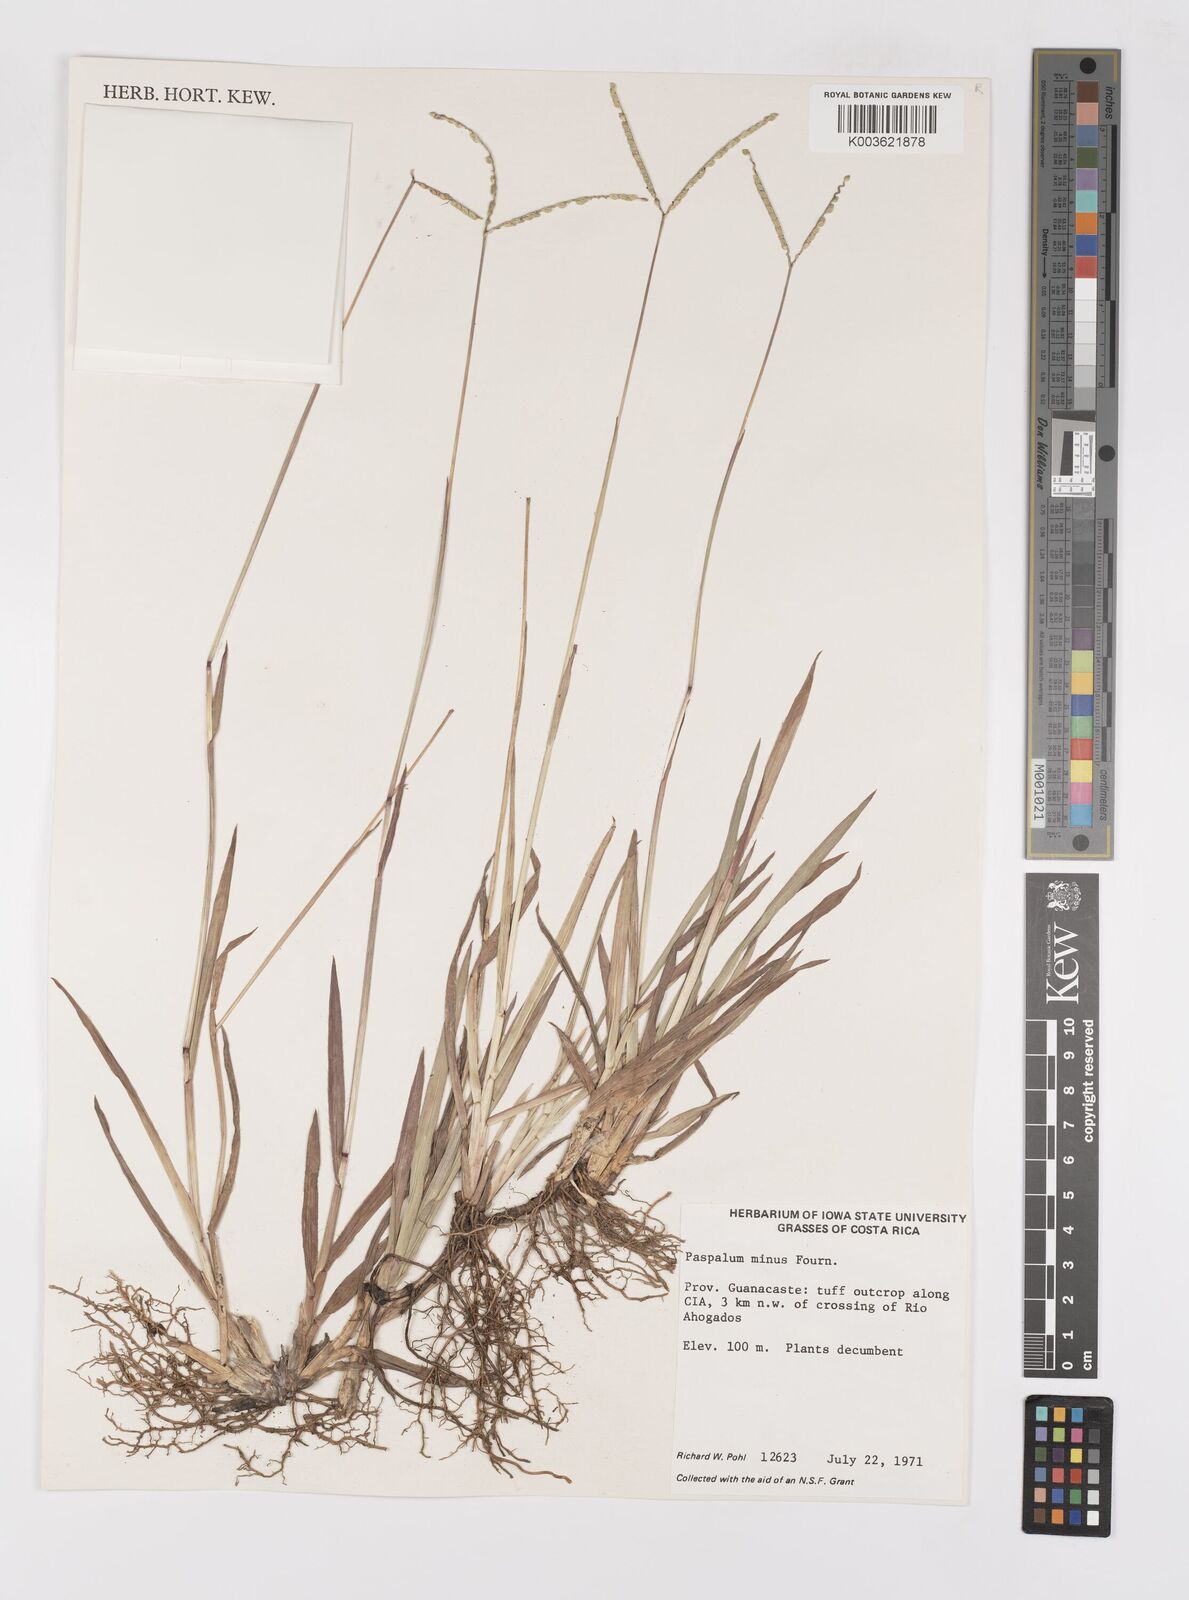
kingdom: Plantae
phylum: Tracheophyta
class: Liliopsida
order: Poales
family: Poaceae
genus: Paspalum
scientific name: Paspalum minus
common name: Matted paspalum
